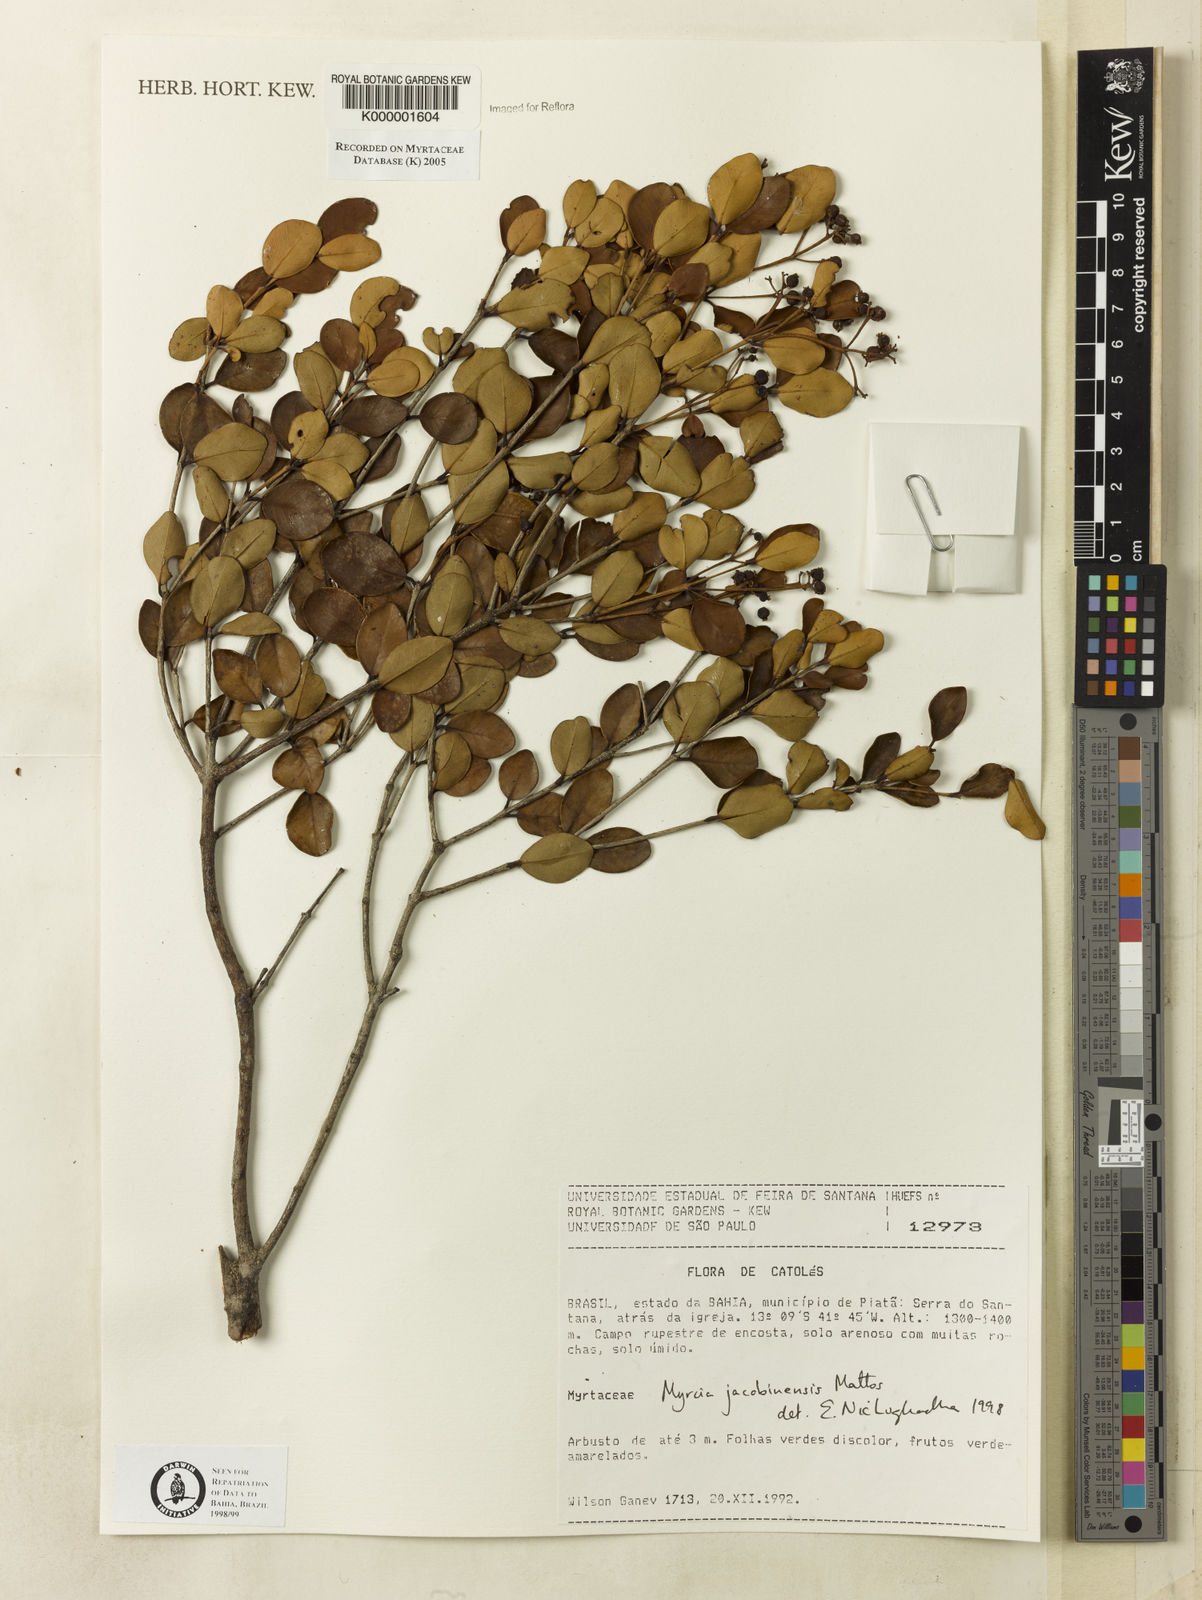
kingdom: Plantae
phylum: Tracheophyta
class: Magnoliopsida
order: Myrtales
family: Myrtaceae
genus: Myrcia
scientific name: Myrcia jacobinensis
